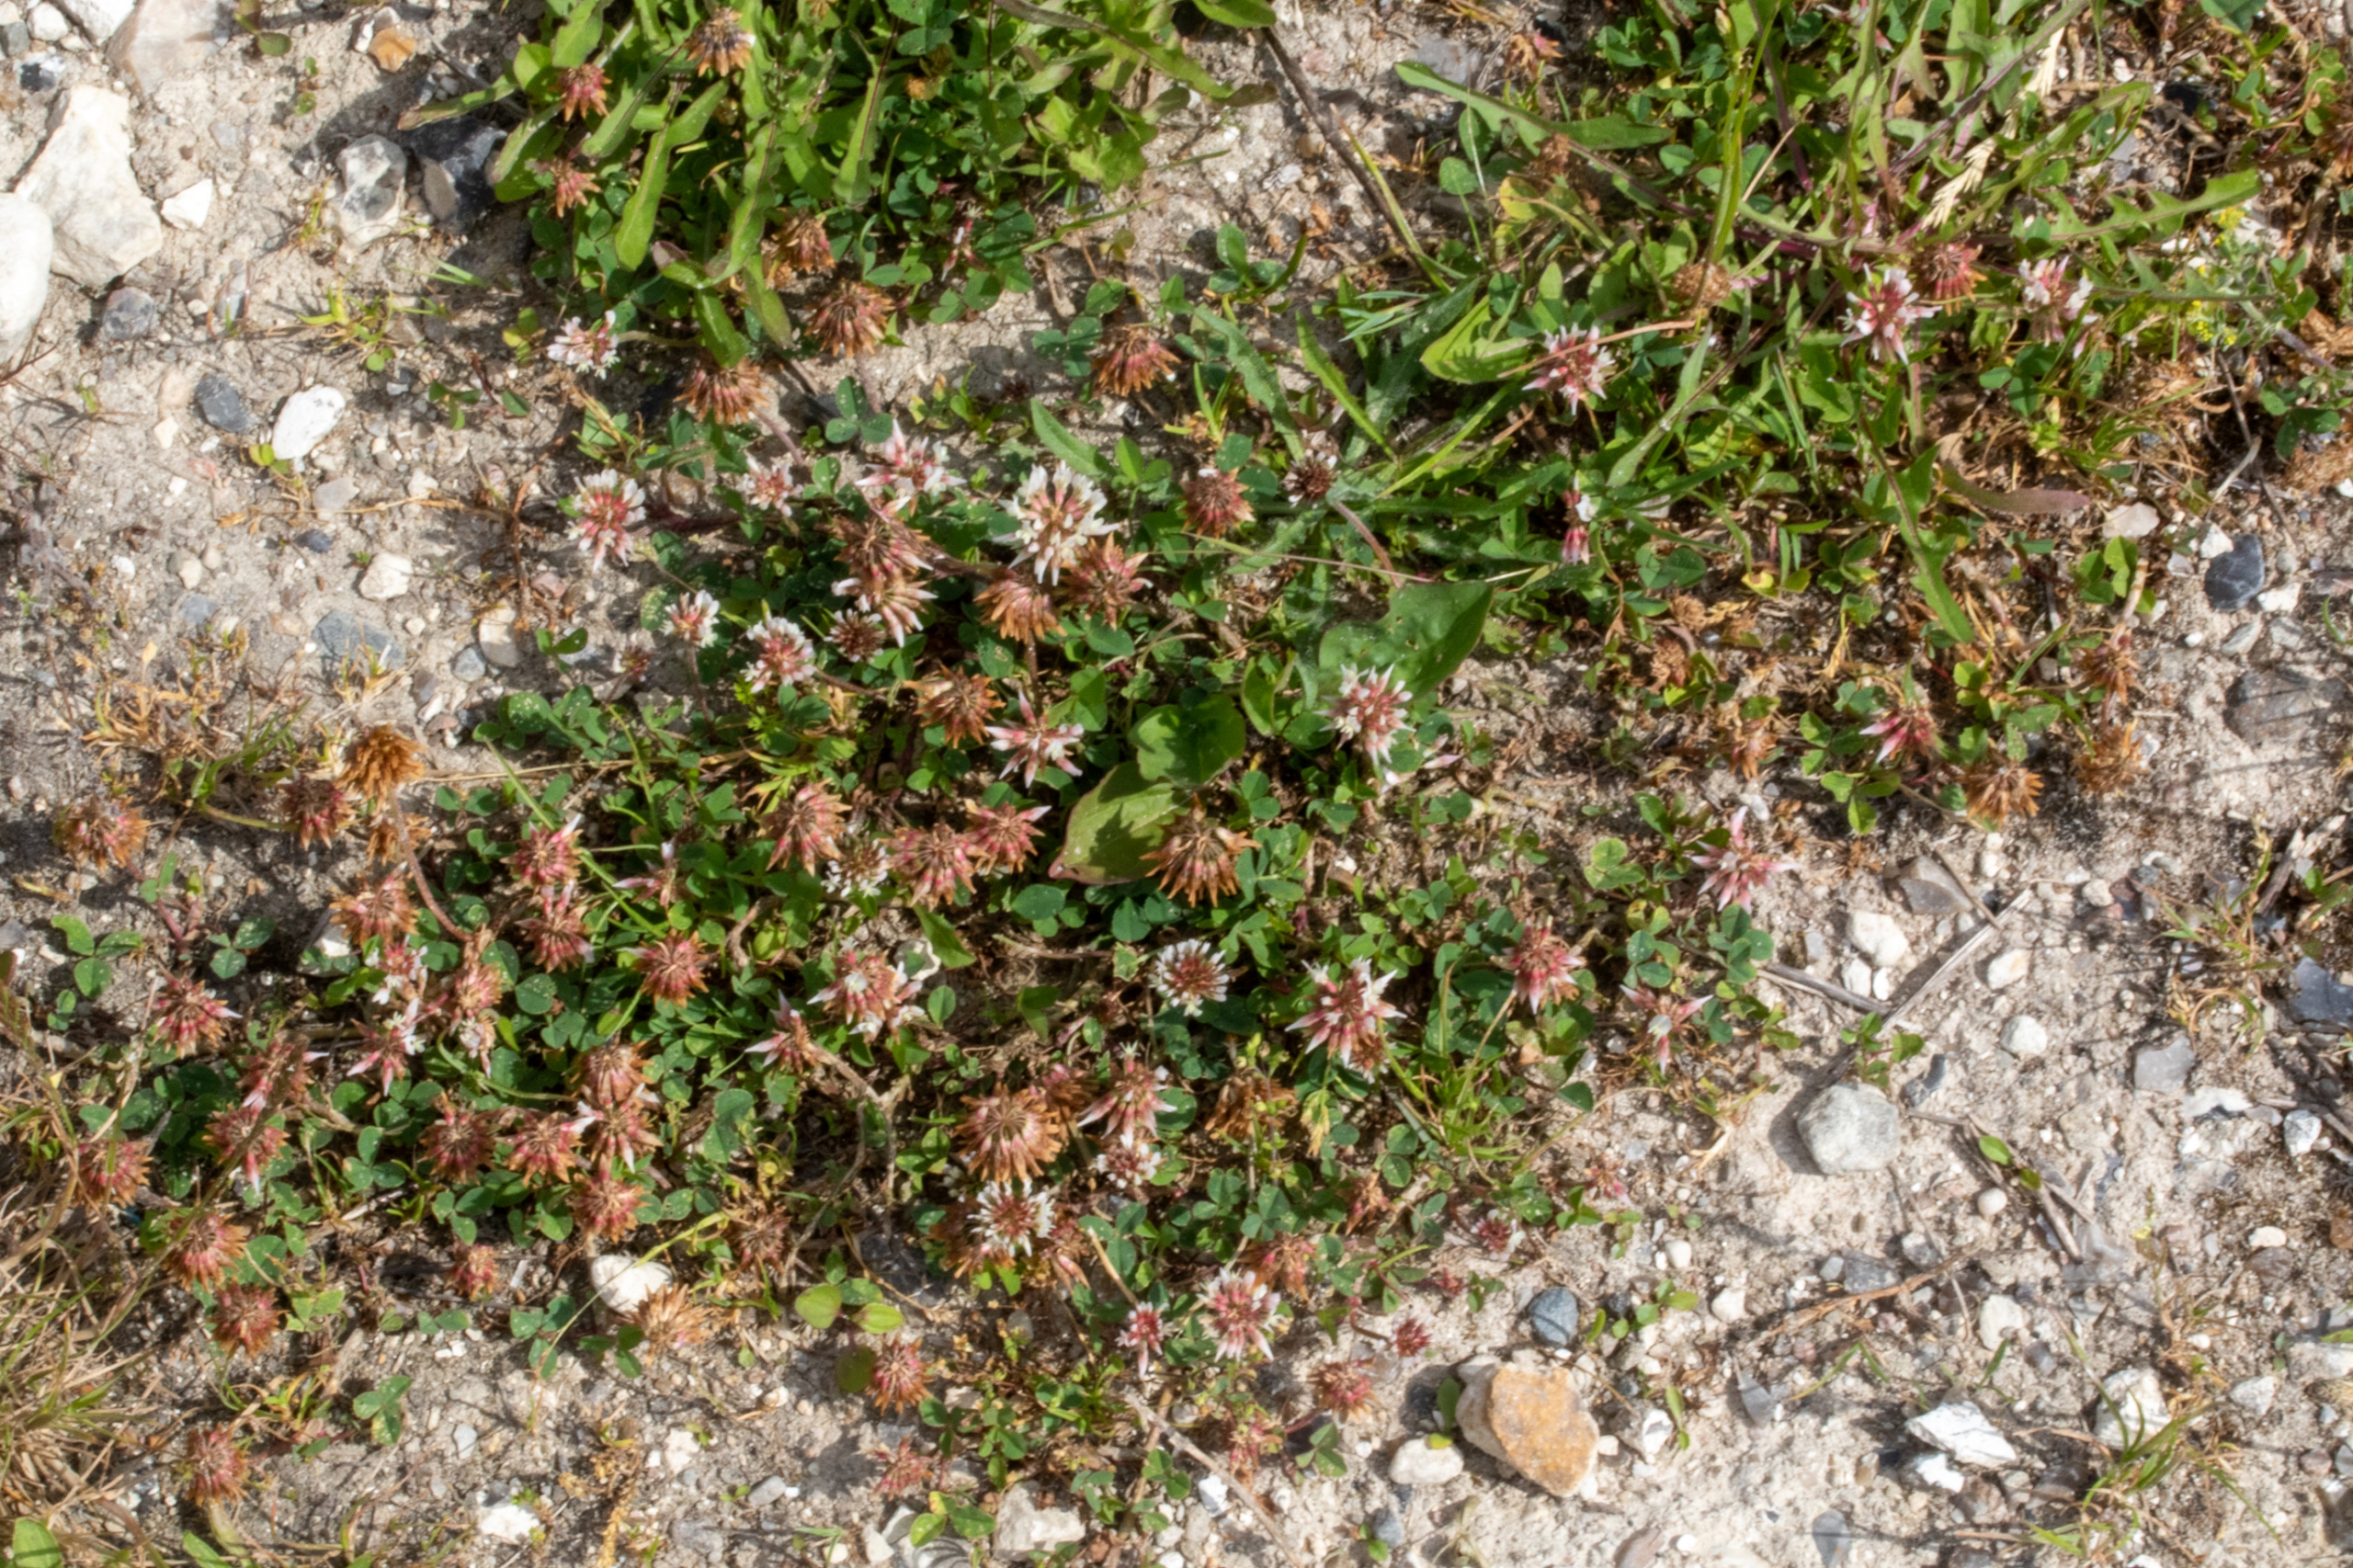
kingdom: Plantae
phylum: Tracheophyta
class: Magnoliopsida
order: Fabales
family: Fabaceae
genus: Trifolium
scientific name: Trifolium repens
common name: Hvid-kløver
